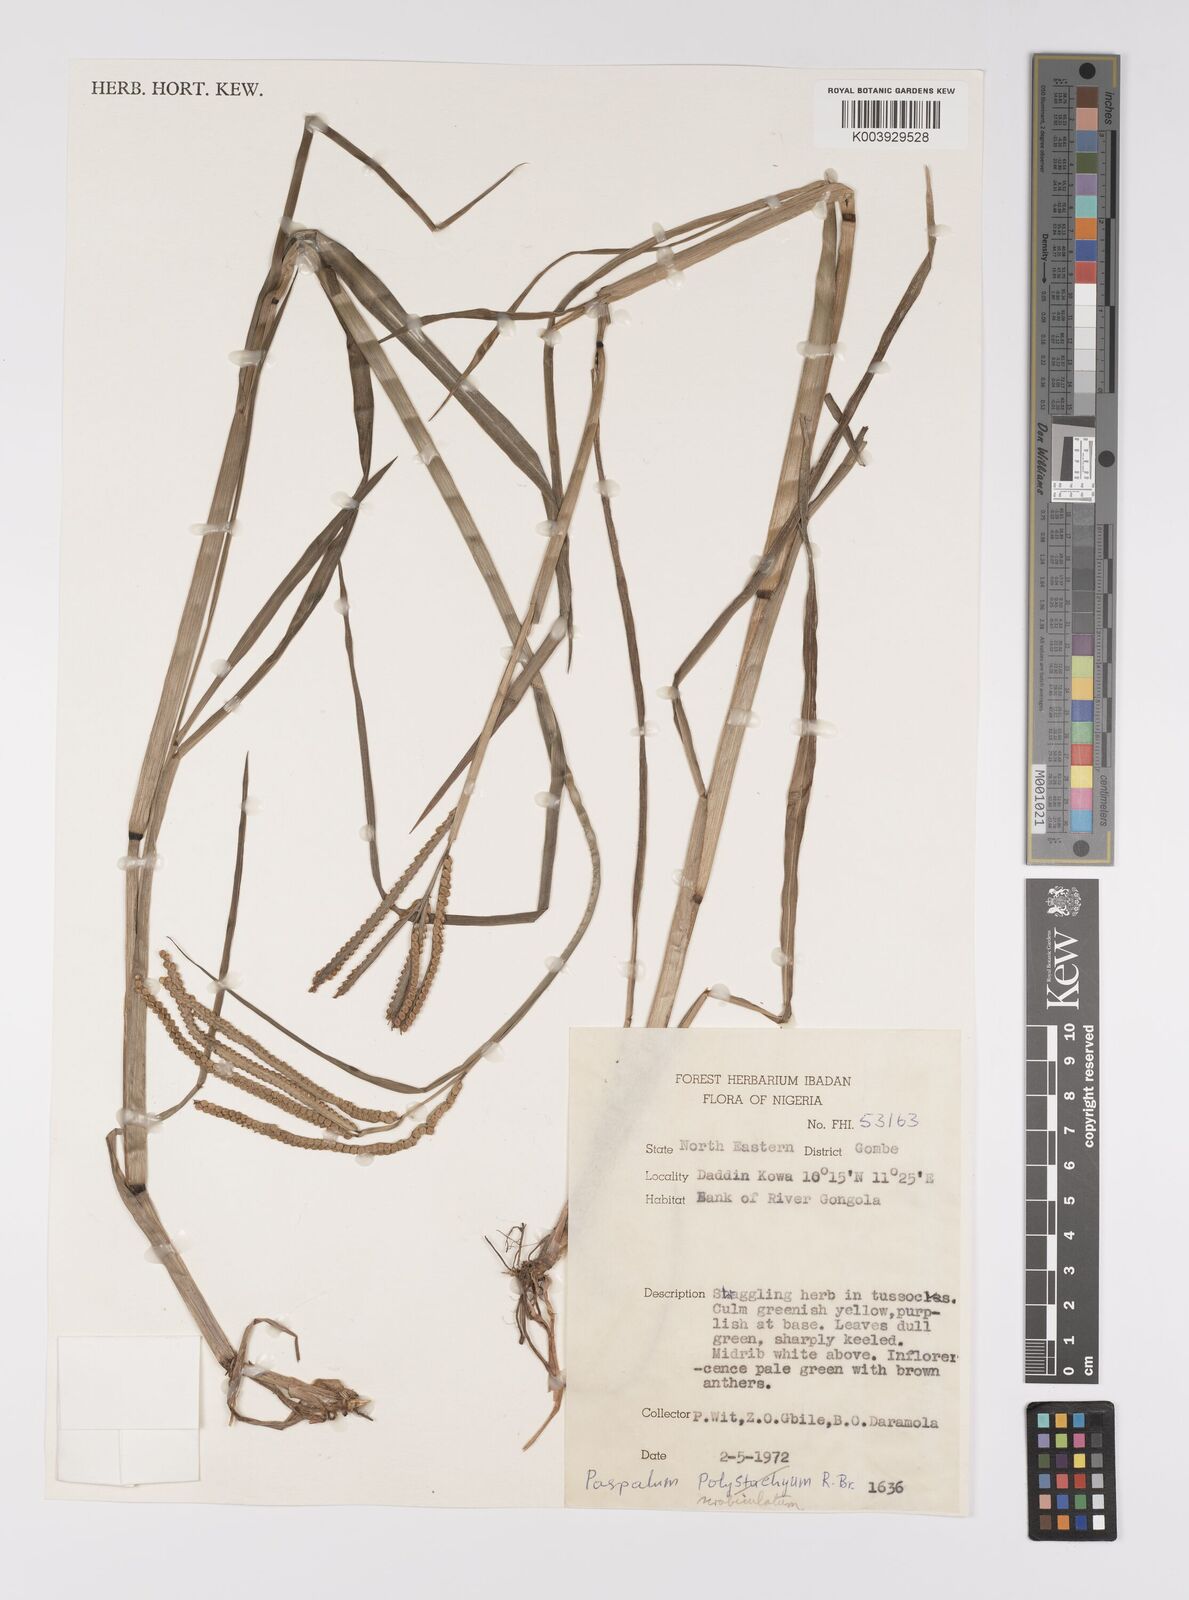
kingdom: Plantae
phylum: Tracheophyta
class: Liliopsida
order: Poales
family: Poaceae
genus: Paspalum
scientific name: Paspalum scrobiculatum
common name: Kodo millet
